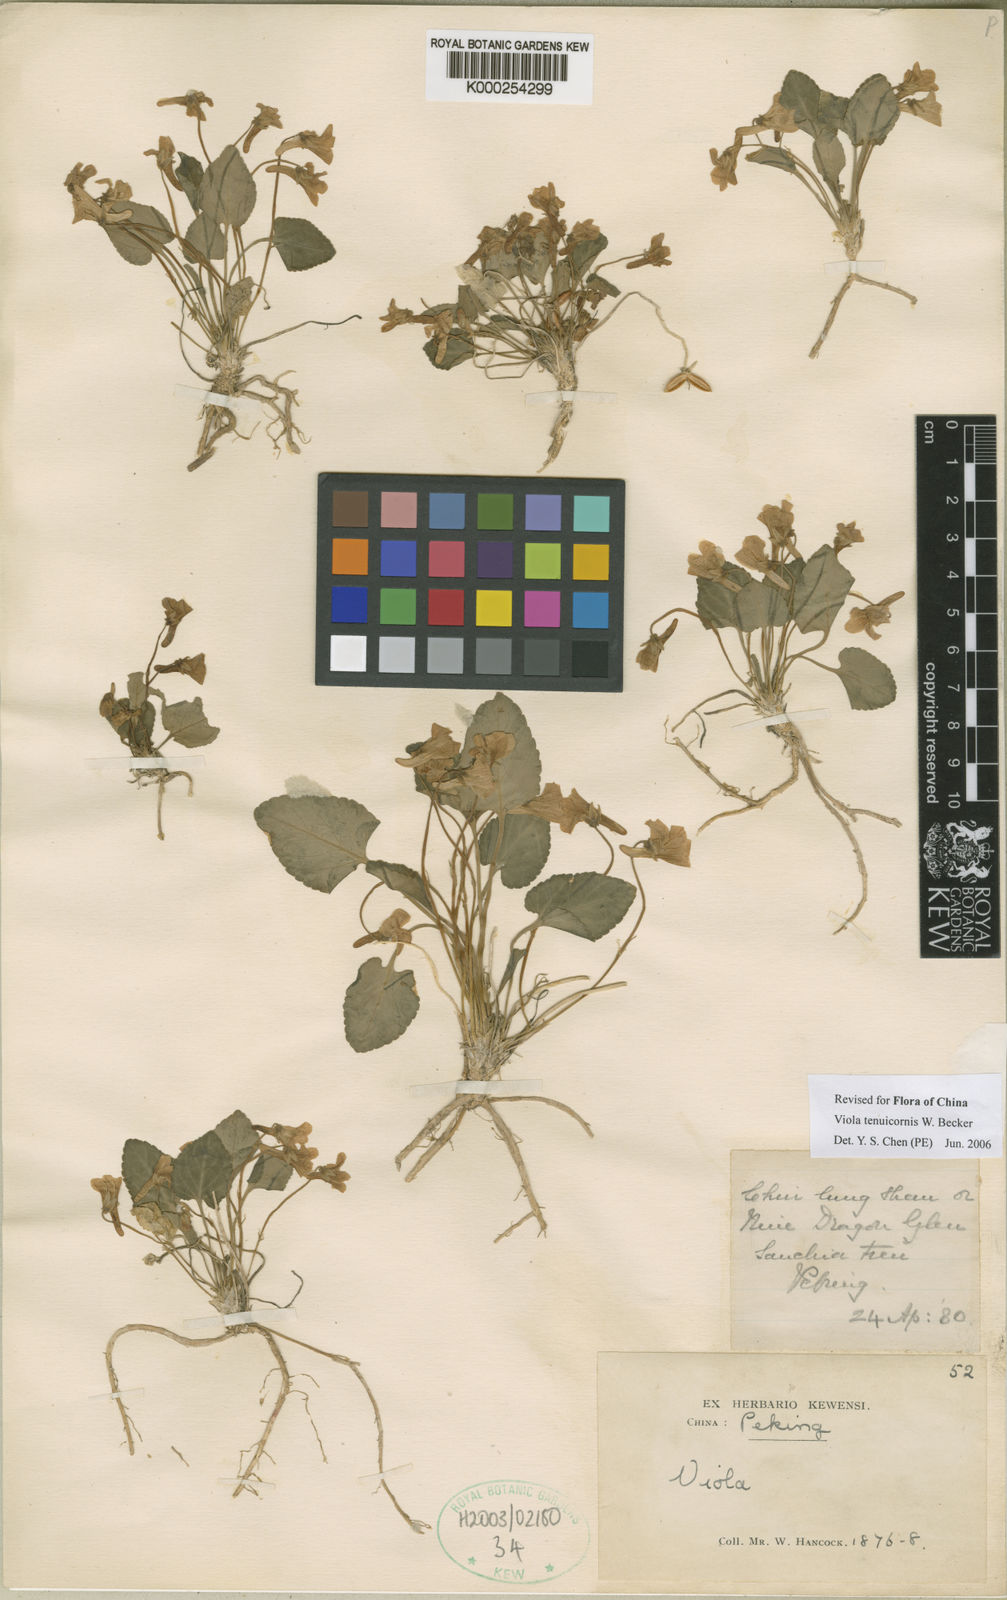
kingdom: Plantae
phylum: Tracheophyta
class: Magnoliopsida
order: Malpighiales
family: Violaceae
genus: Viola
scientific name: Viola hancockii
